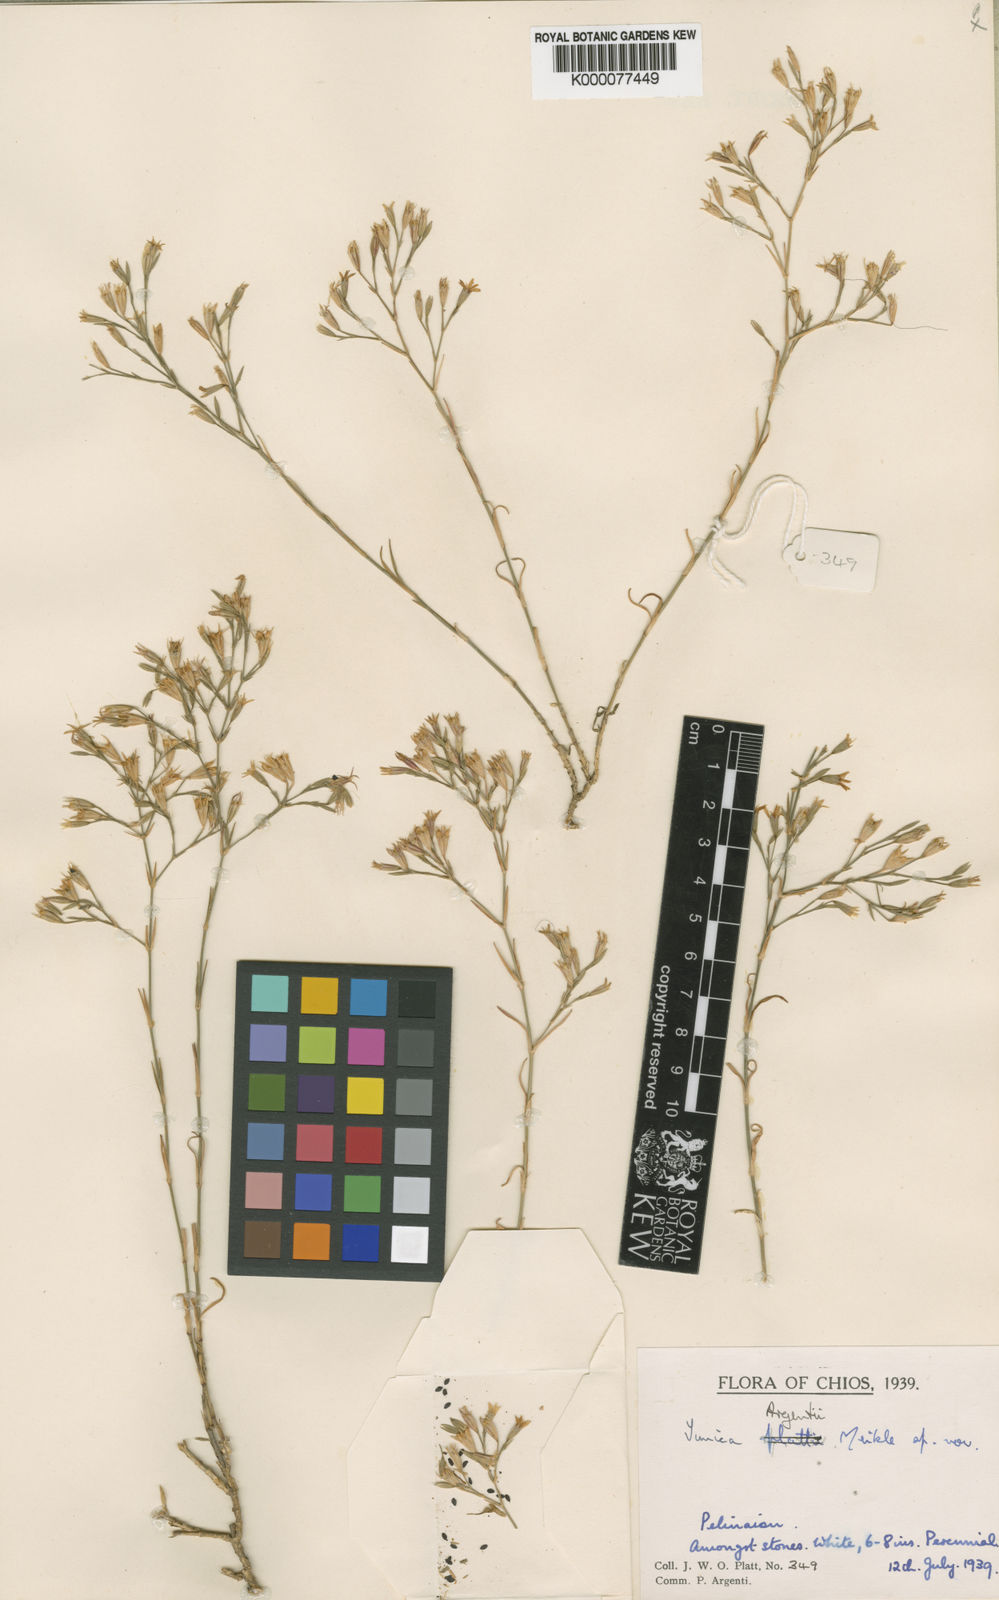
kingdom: Plantae
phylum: Tracheophyta
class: Magnoliopsida
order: Caryophyllales
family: Caryophyllaceae
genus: Dianthus
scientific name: Dianthus tunicoides
